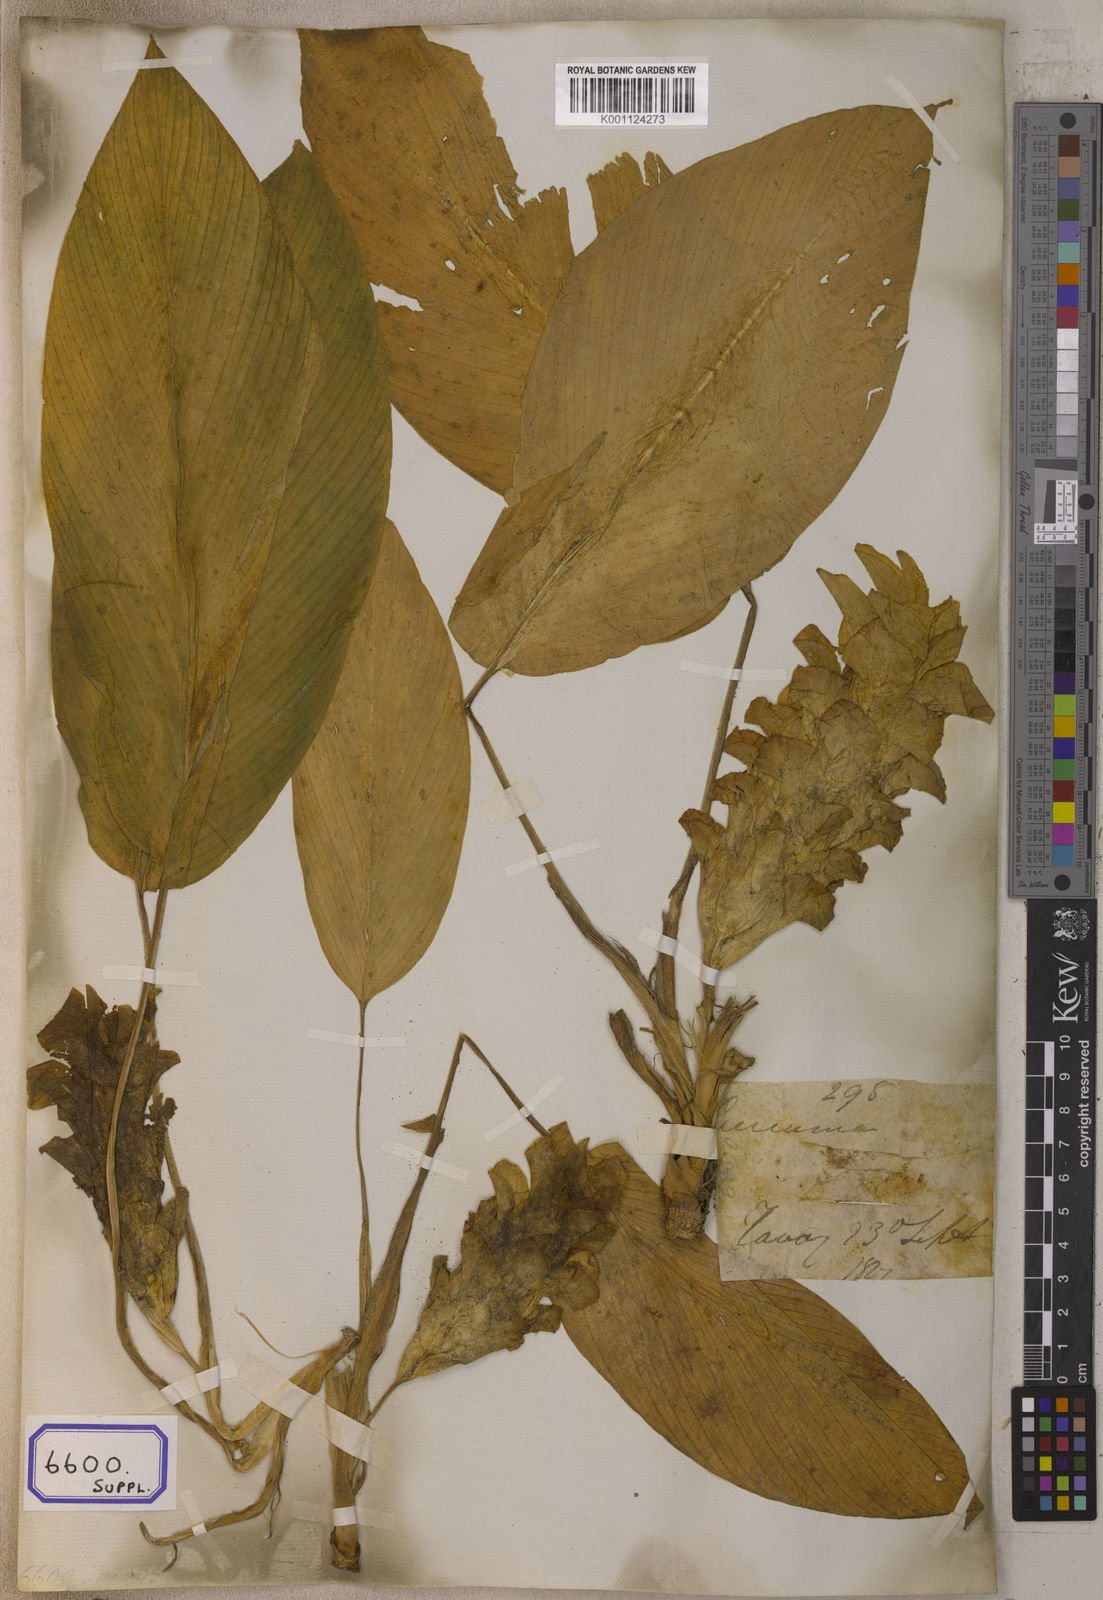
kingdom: Plantae
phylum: Tracheophyta
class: Liliopsida
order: Zingiberales
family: Zingiberaceae
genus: Curcuma
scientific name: Curcuma zedoaria
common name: Zedoary
